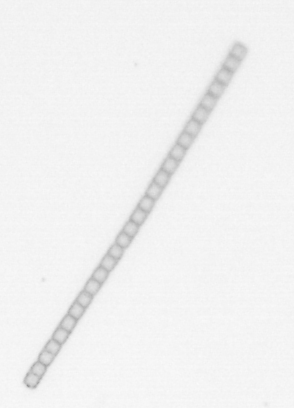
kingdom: Chromista
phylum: Ochrophyta
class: Bacillariophyceae
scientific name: Bacillariophyceae
